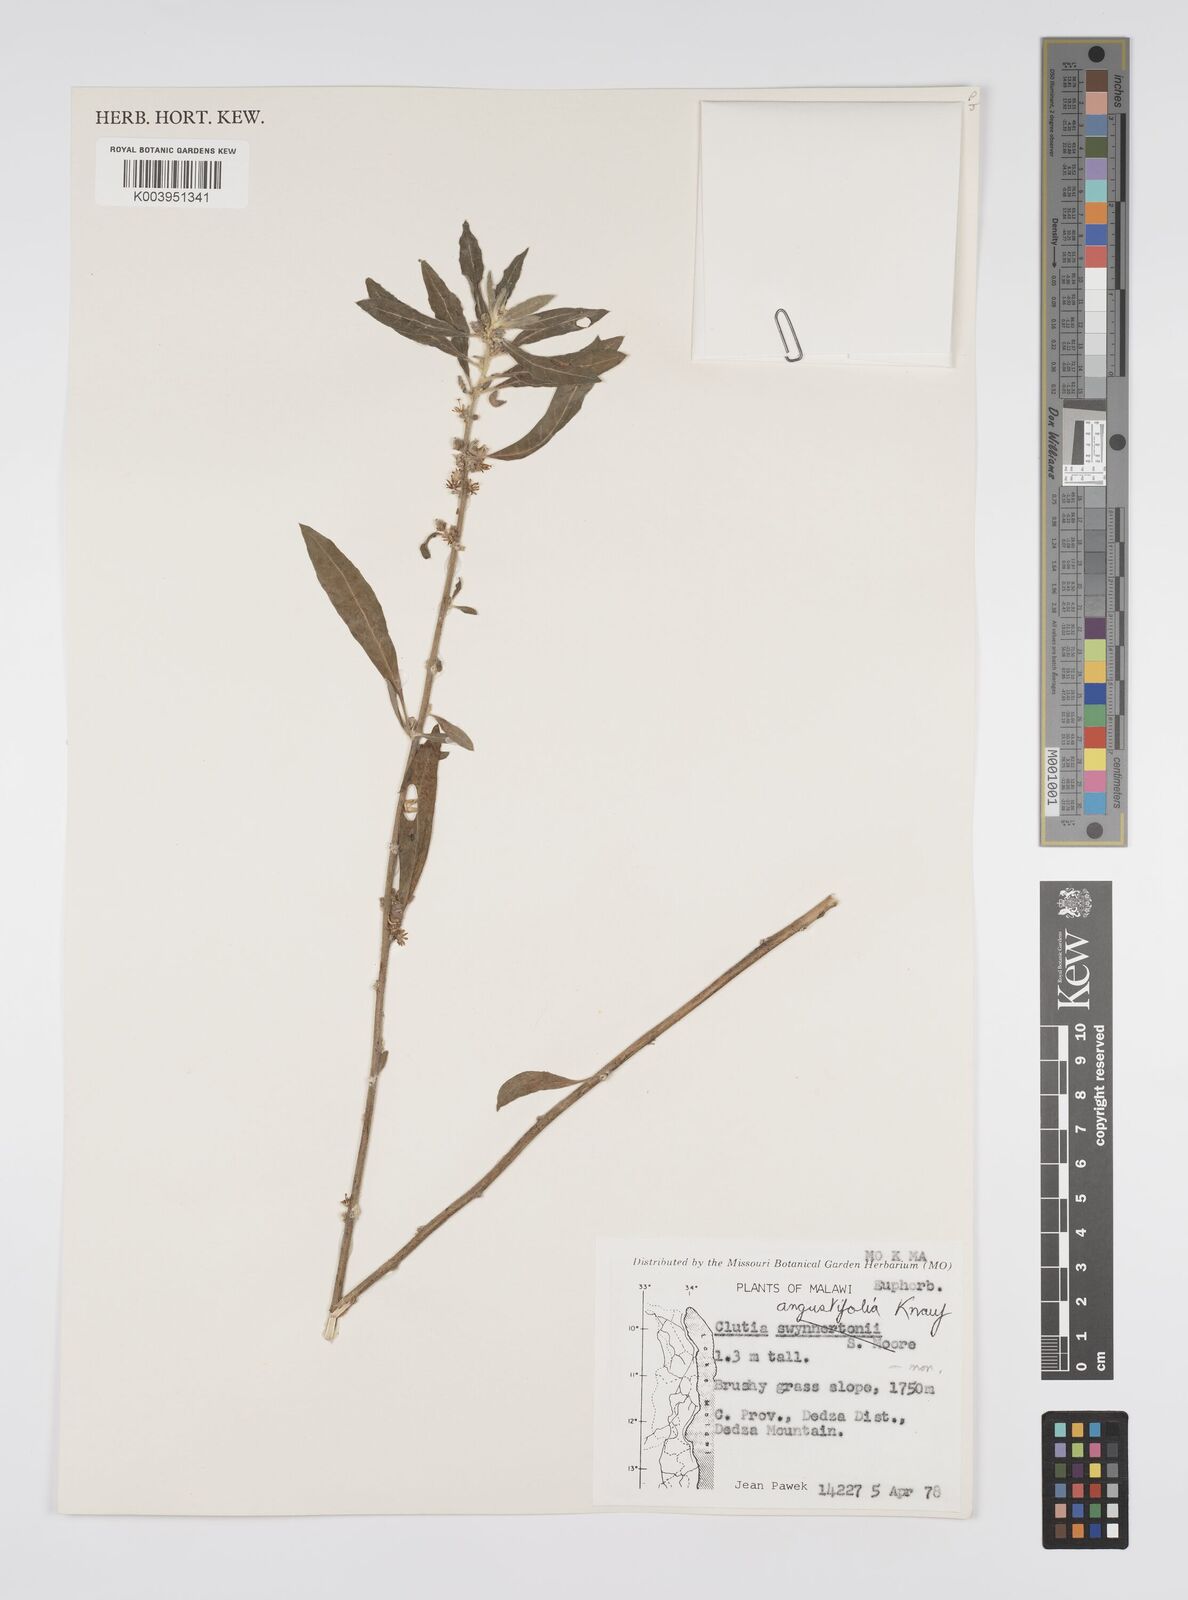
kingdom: Plantae
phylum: Tracheophyta
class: Magnoliopsida
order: Malpighiales
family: Peraceae
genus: Clutia
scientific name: Clutia angustifolia
